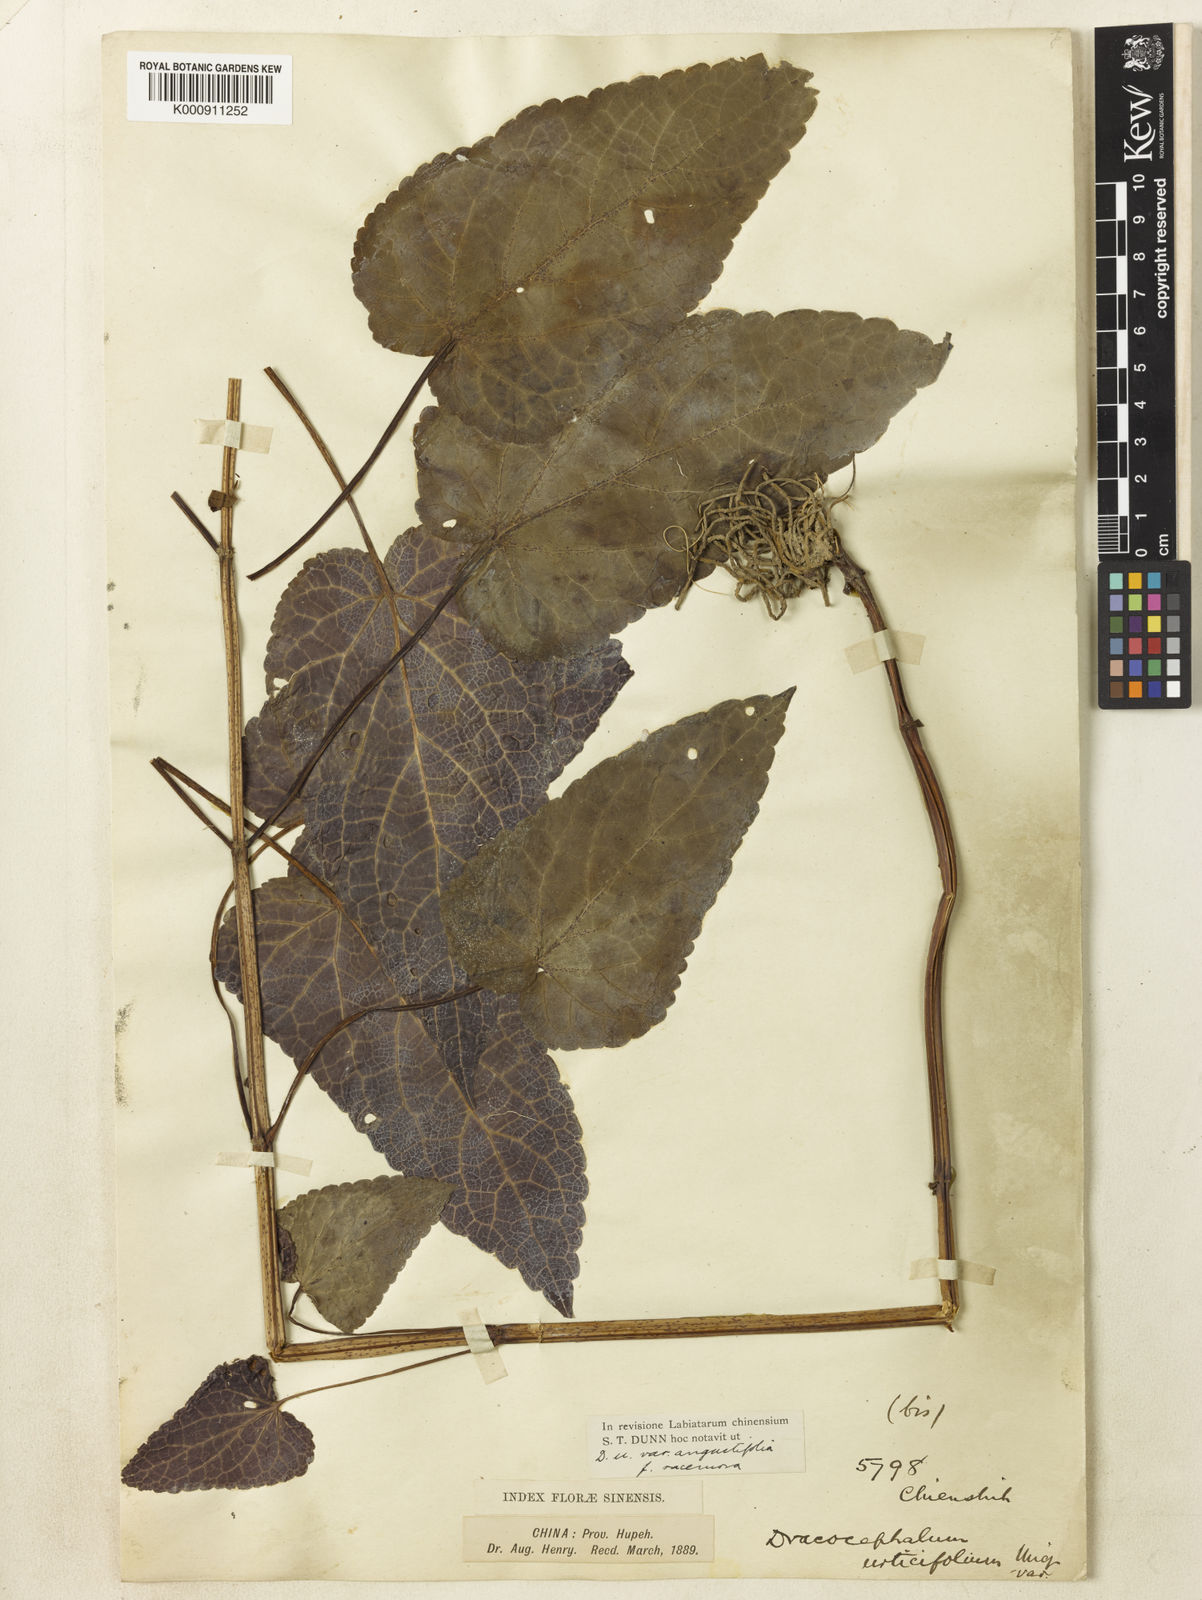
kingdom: Plantae
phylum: Tracheophyta
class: Magnoliopsida
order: Lamiales
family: Lamiaceae
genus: Meehania
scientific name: Meehania fargesii
